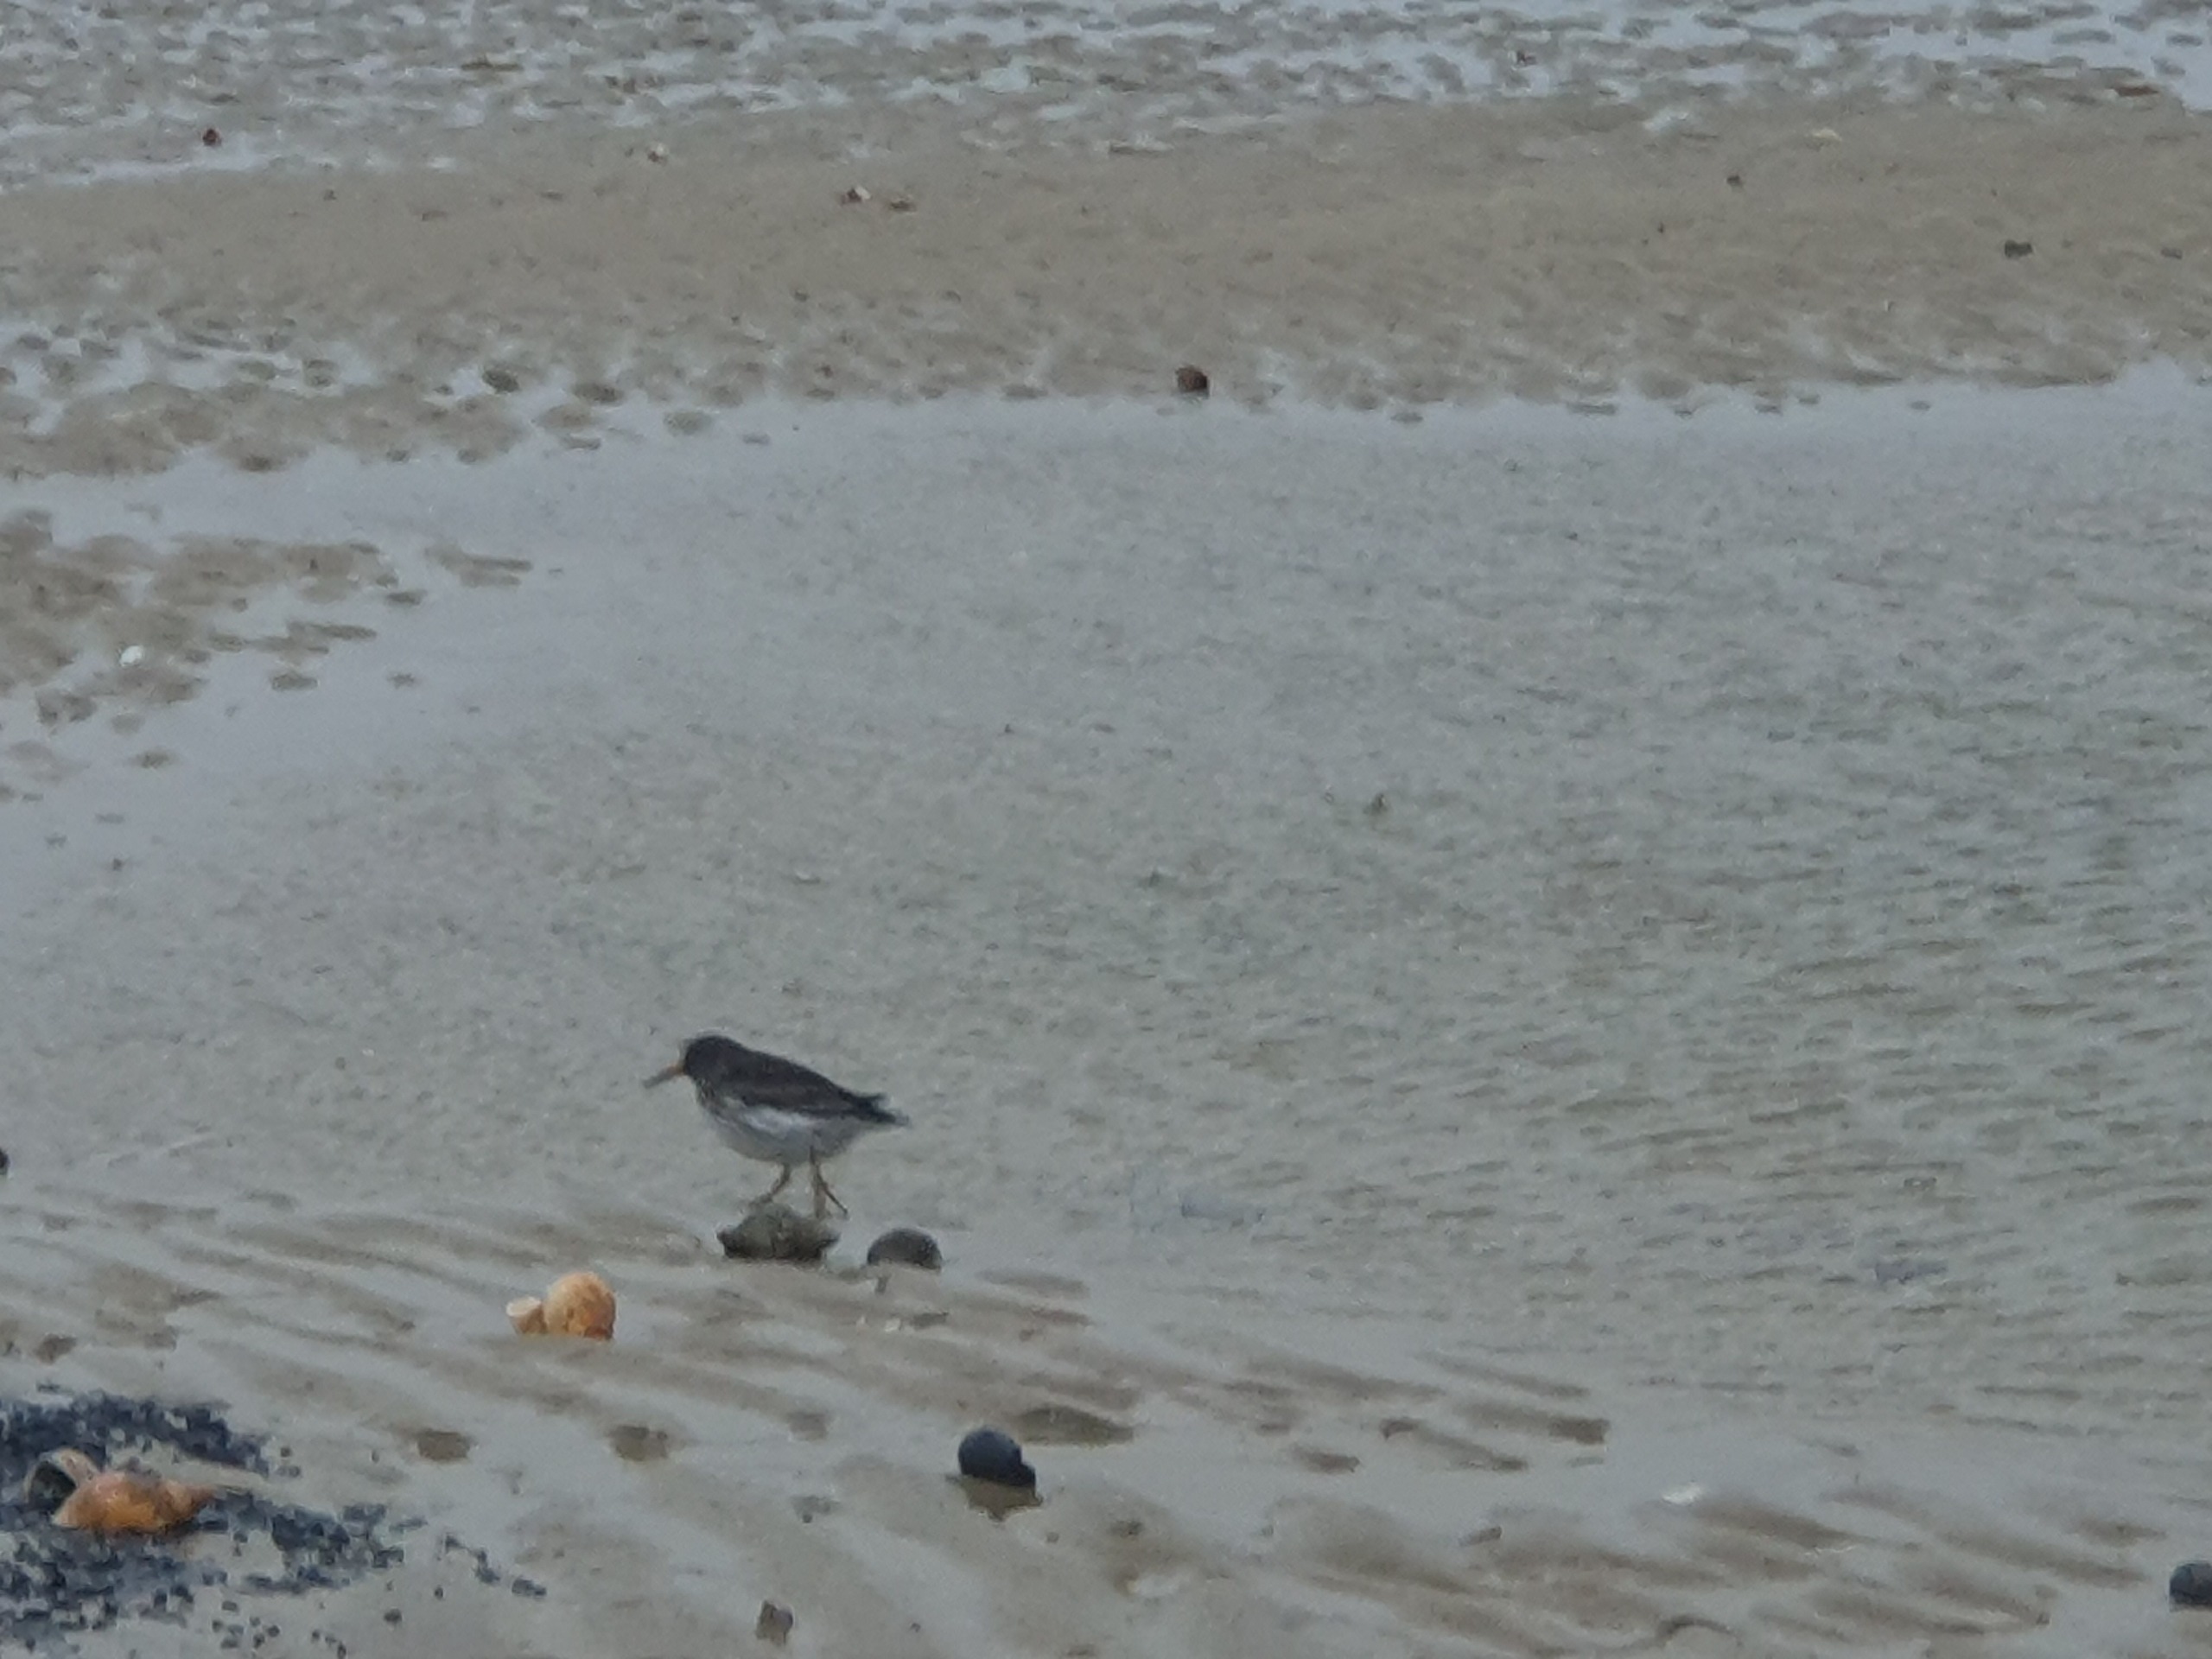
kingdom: Animalia
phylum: Chordata
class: Aves
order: Charadriiformes
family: Scolopacidae
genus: Calidris
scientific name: Calidris maritima
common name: Sortgrå ryle
